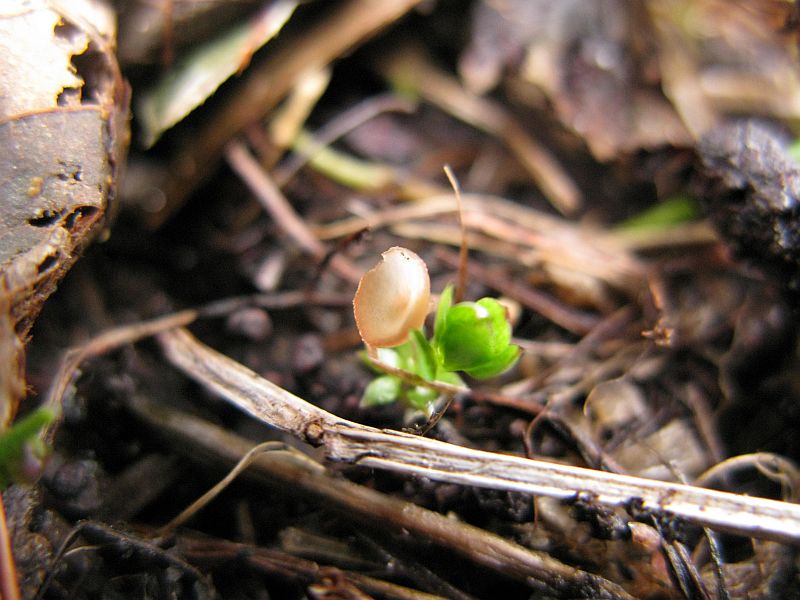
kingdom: Fungi
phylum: Ascomycota
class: Leotiomycetes
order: Helotiales
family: Sclerotiniaceae
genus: Ciboria
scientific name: Ciboria amentacea
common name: ellerakle-knoldskive
